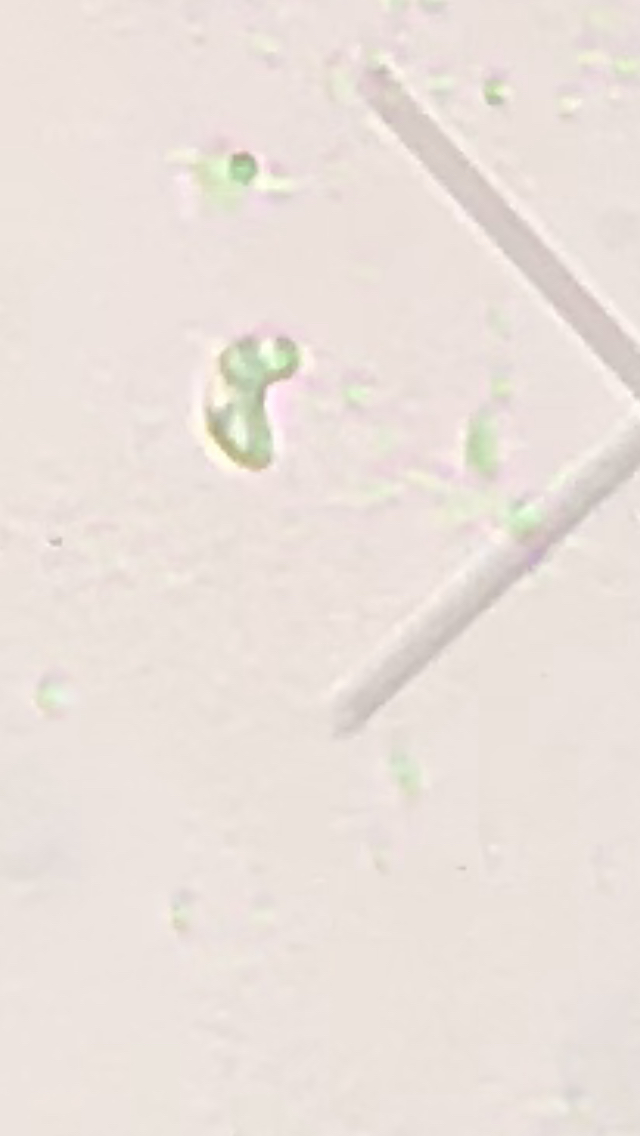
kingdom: Fungi
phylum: Basidiomycota
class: Agaricomycetes
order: Polyporales
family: Incrustoporiaceae
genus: Skeletocutis
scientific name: Skeletocutis amorpha
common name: orange krystalporesvamp
